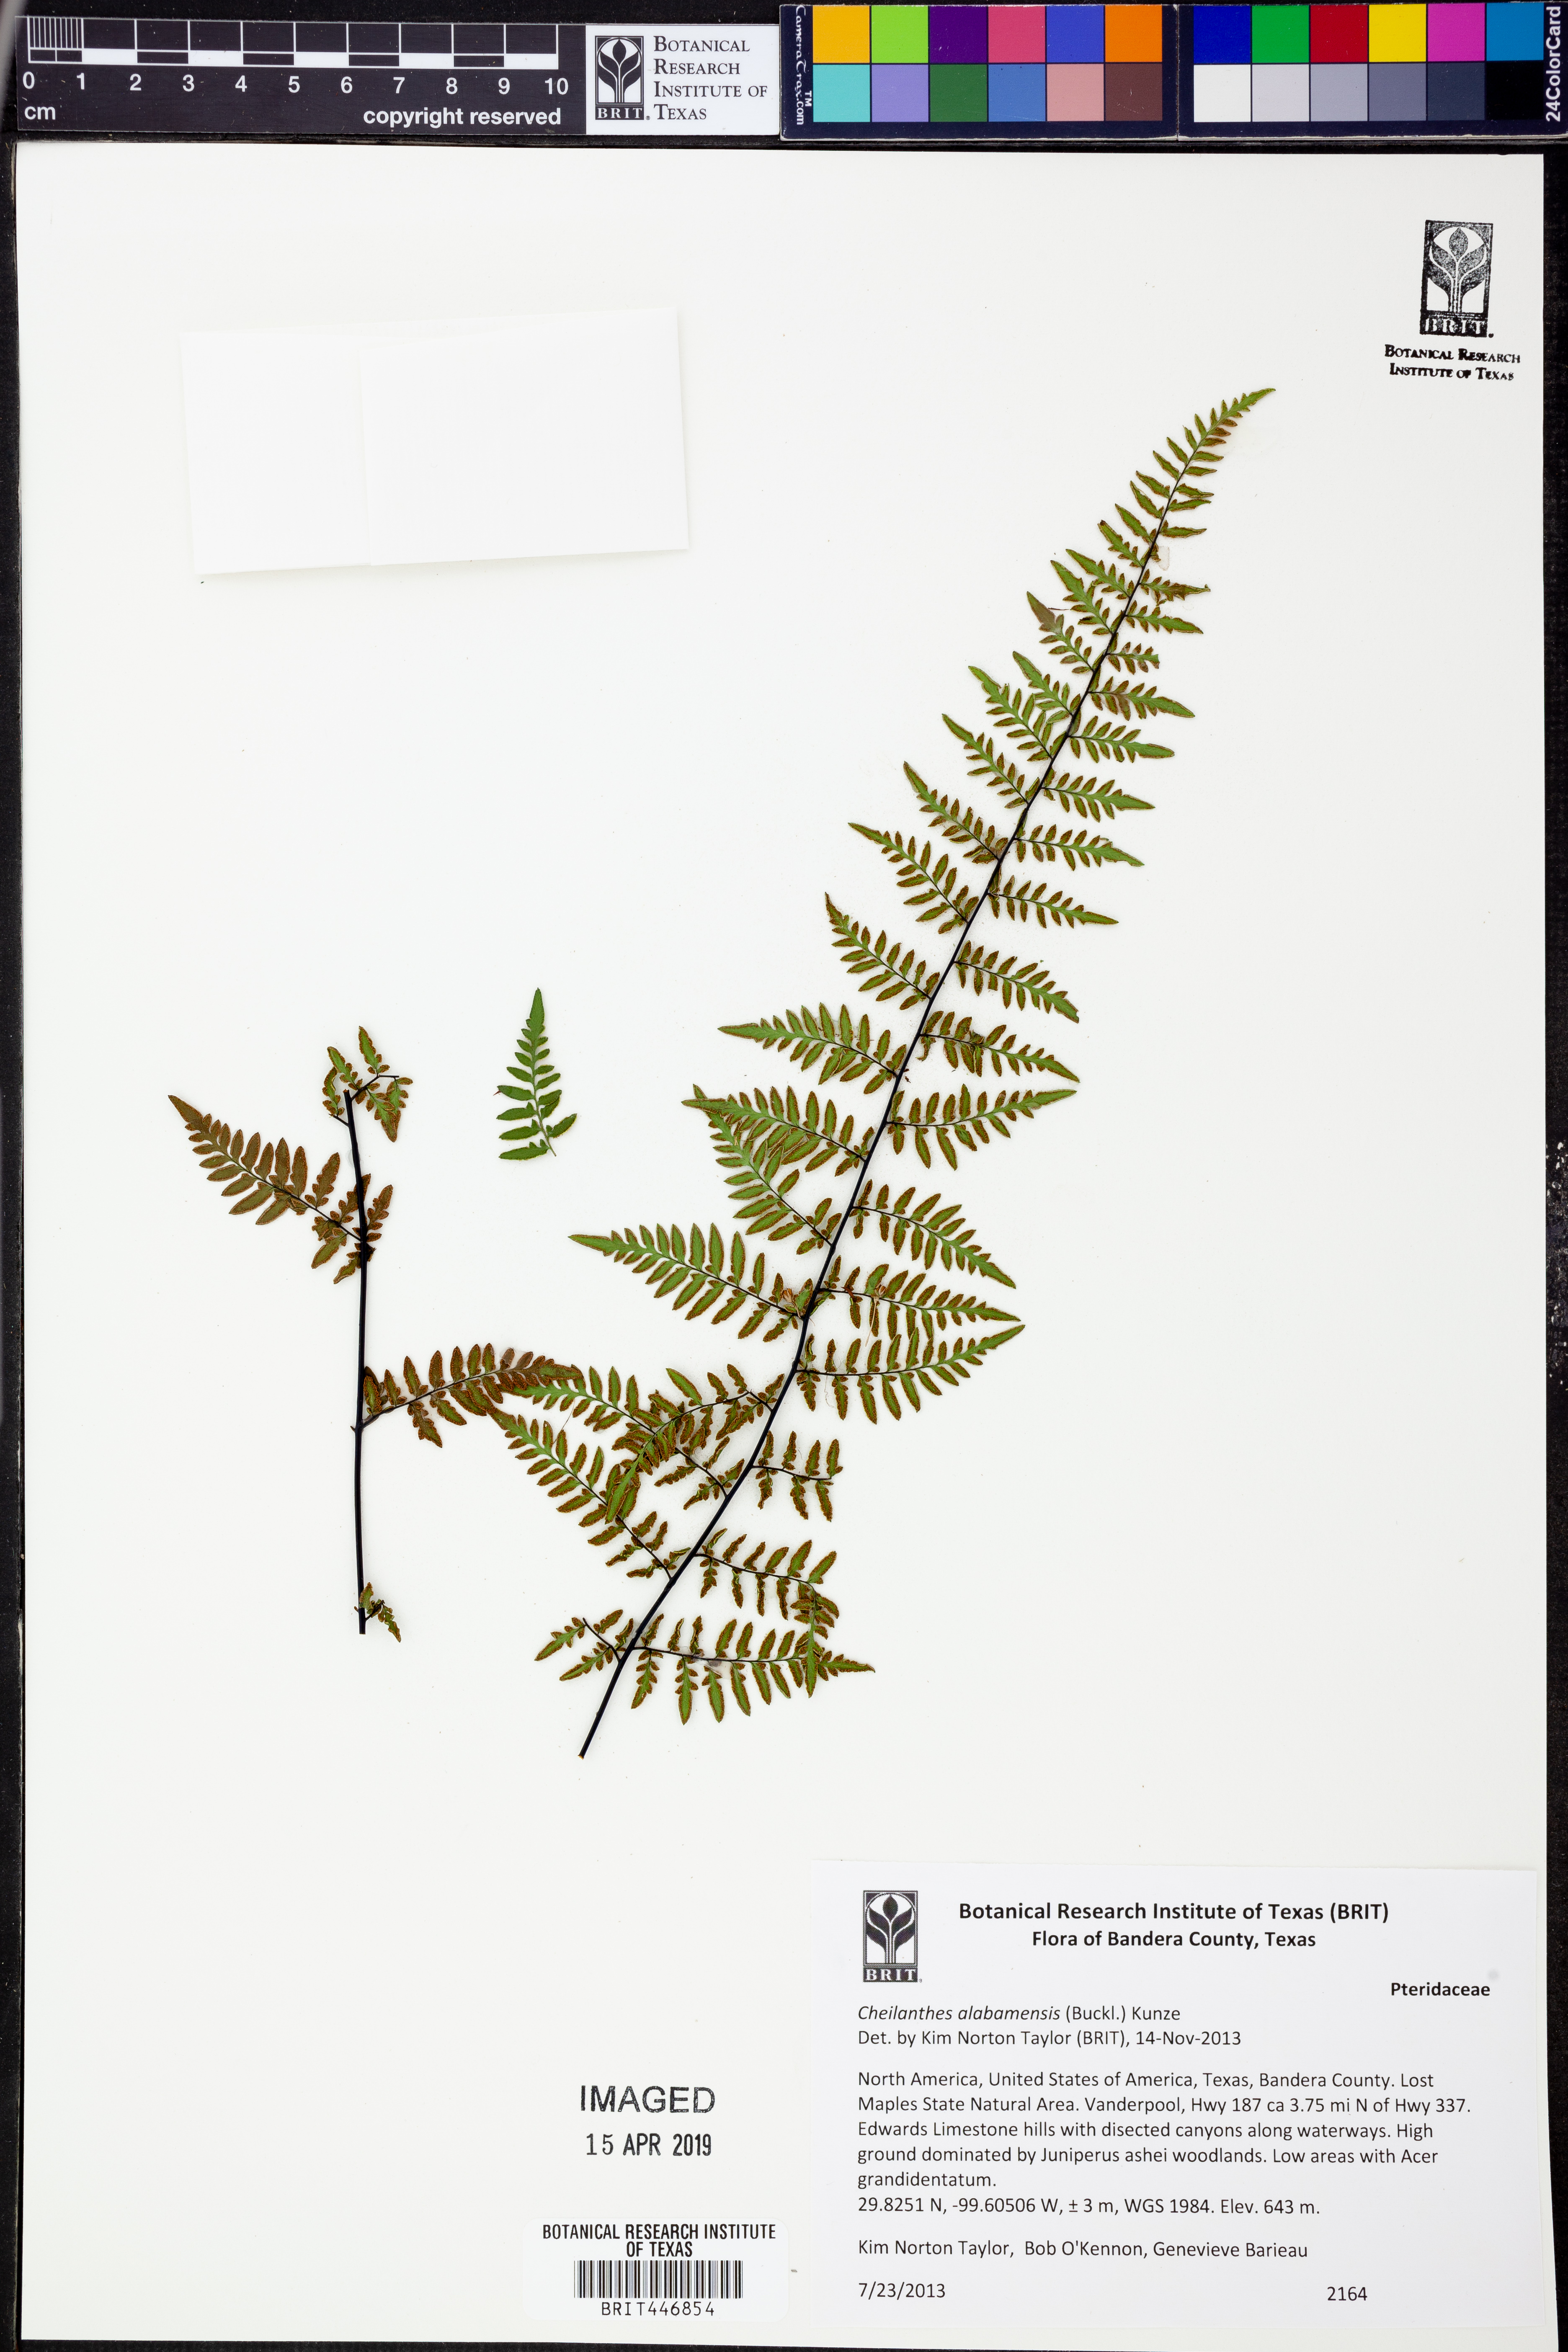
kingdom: Plantae
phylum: Tracheophyta
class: Polypodiopsida
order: Polypodiales
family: Pteridaceae
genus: Myriopteris
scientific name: Myriopteris alabamensis
